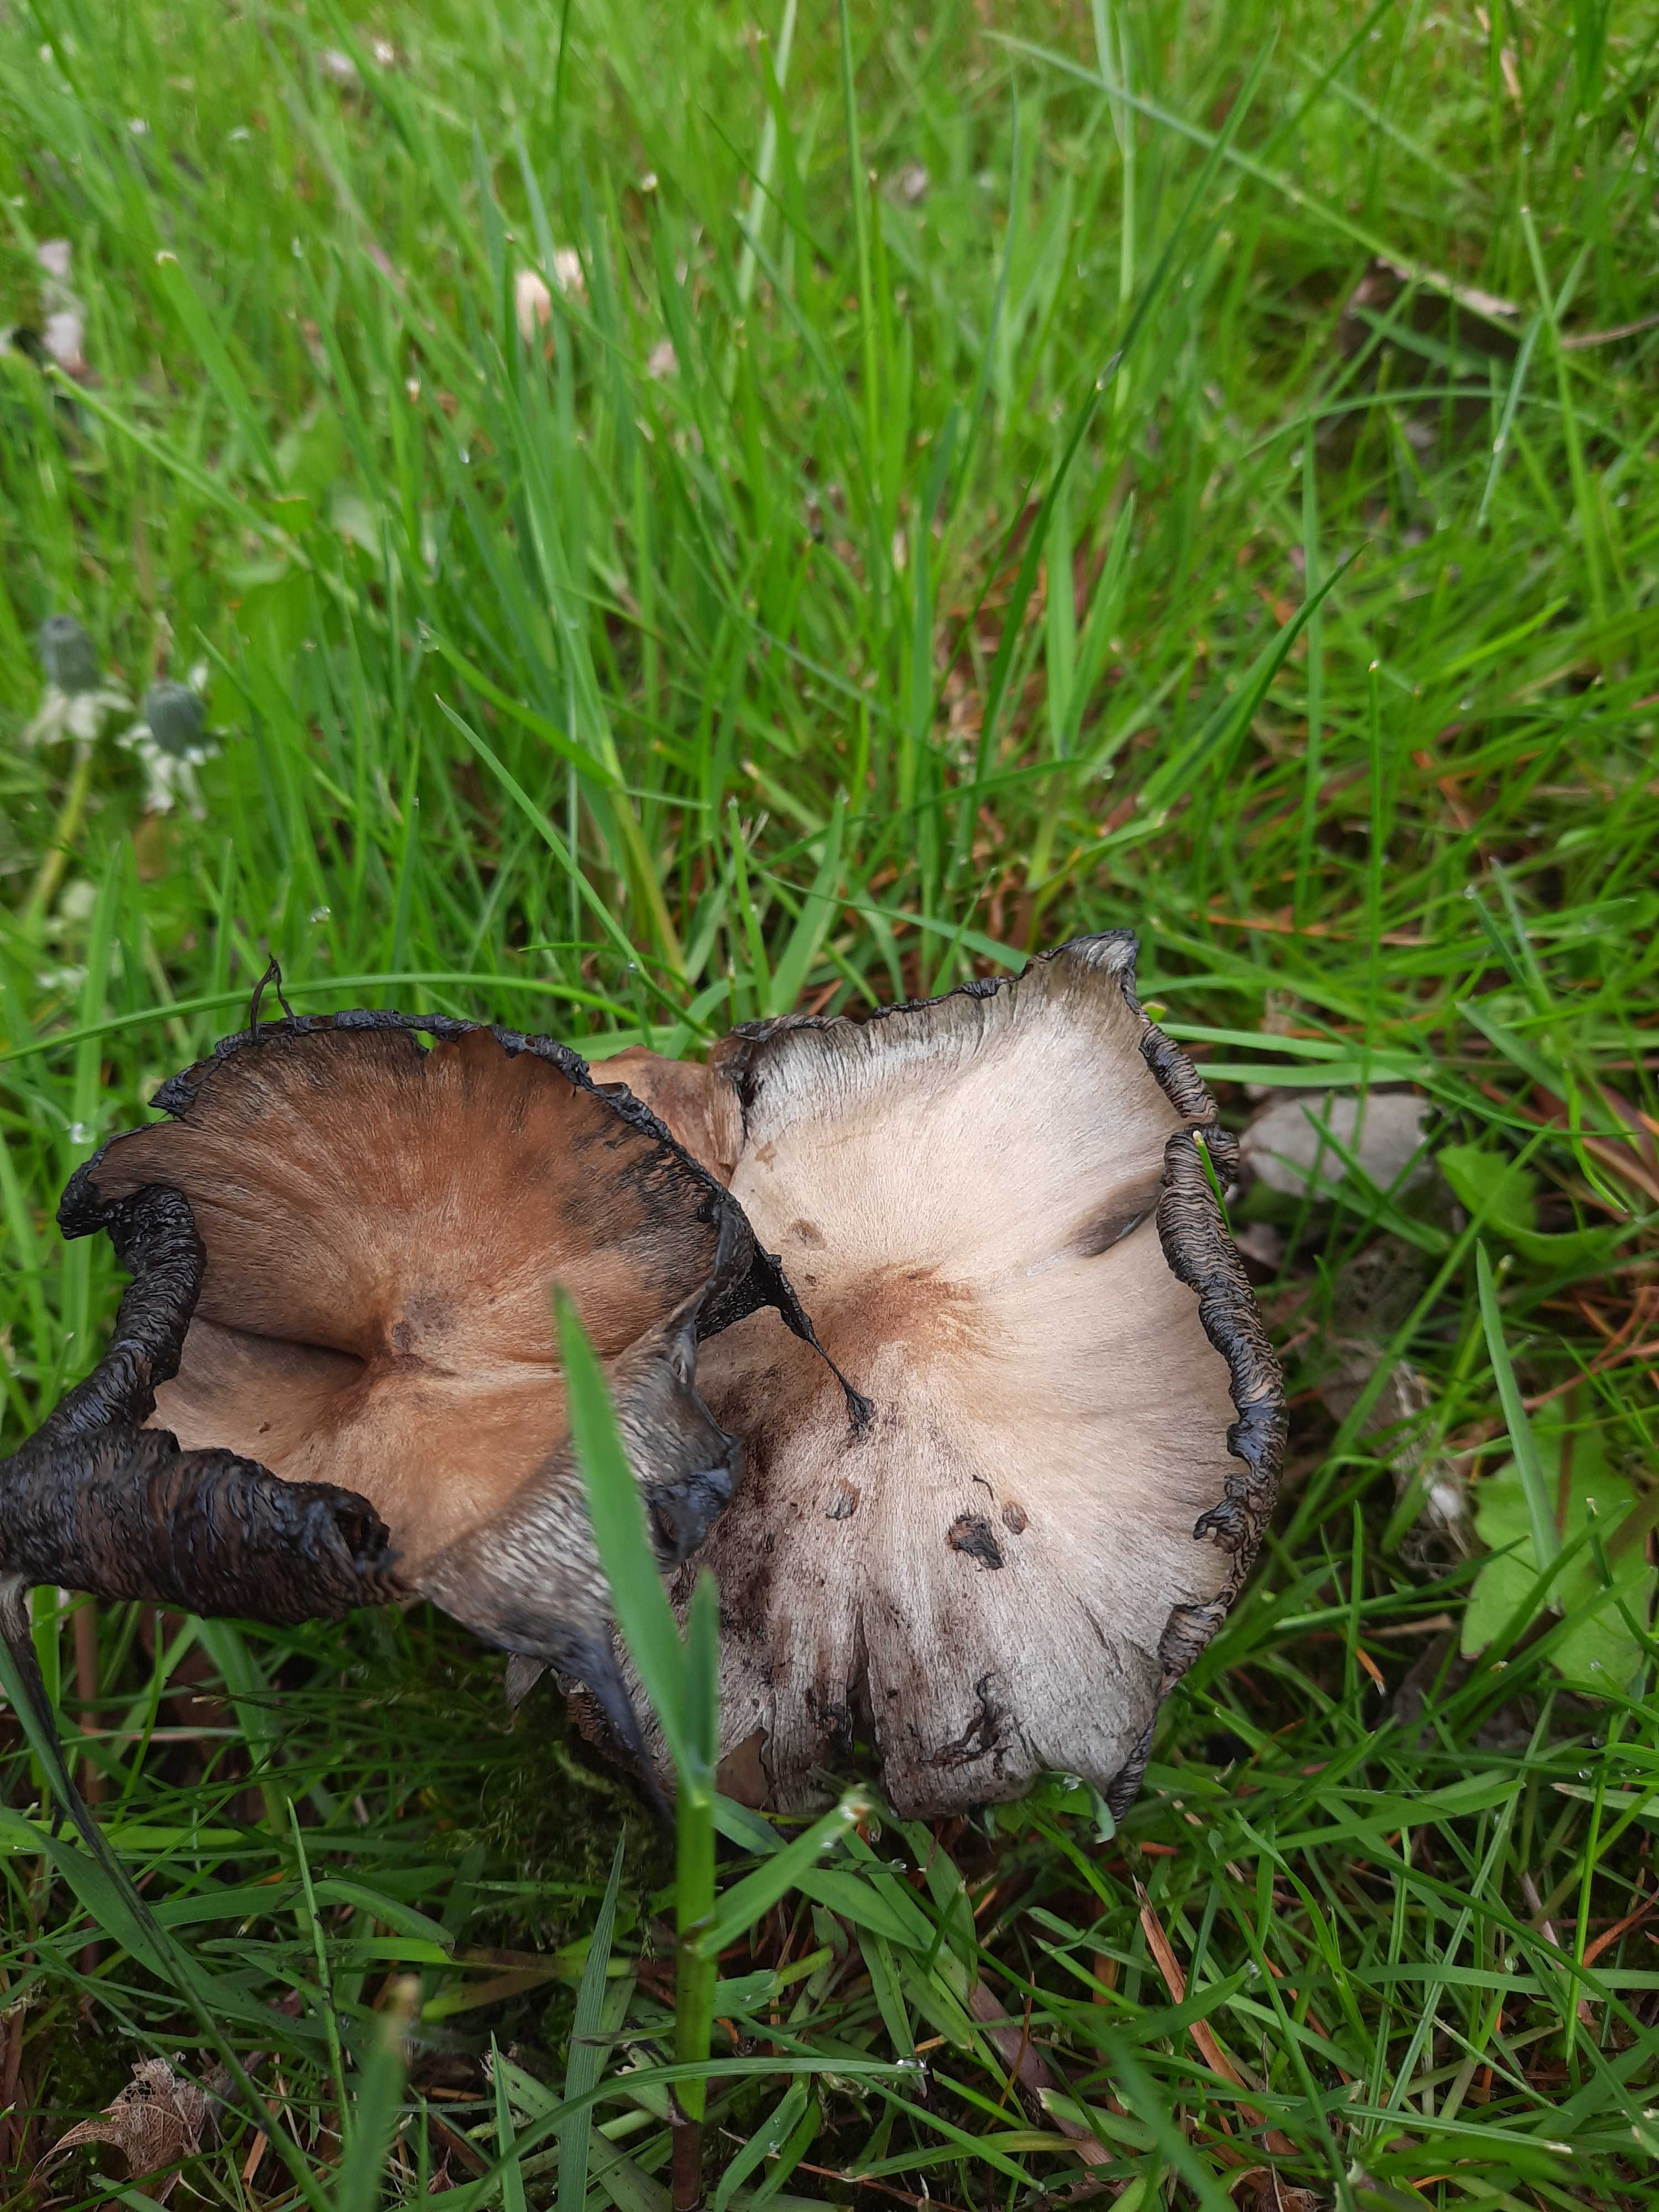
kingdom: Fungi
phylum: Basidiomycota
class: Agaricomycetes
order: Agaricales
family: Psathyrellaceae
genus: Coprinopsis
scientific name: Coprinopsis atramentaria
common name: almindelig blækhat
